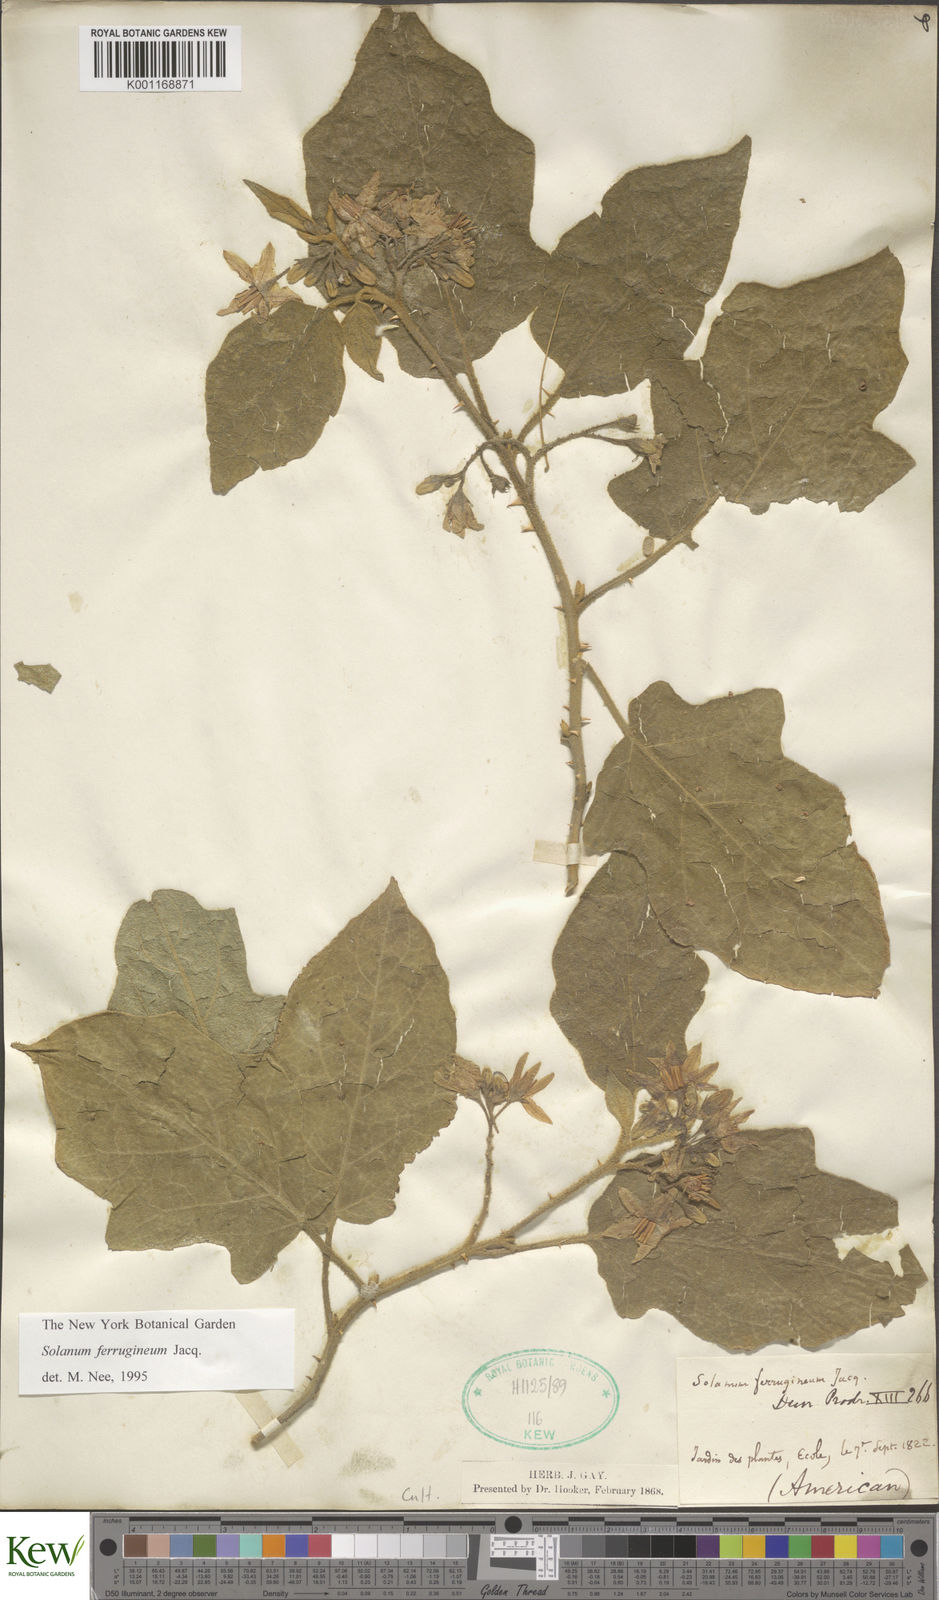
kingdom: Plantae
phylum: Tracheophyta
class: Magnoliopsida
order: Solanales
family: Solanaceae
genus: Solanum
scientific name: Solanum ferrugineum
